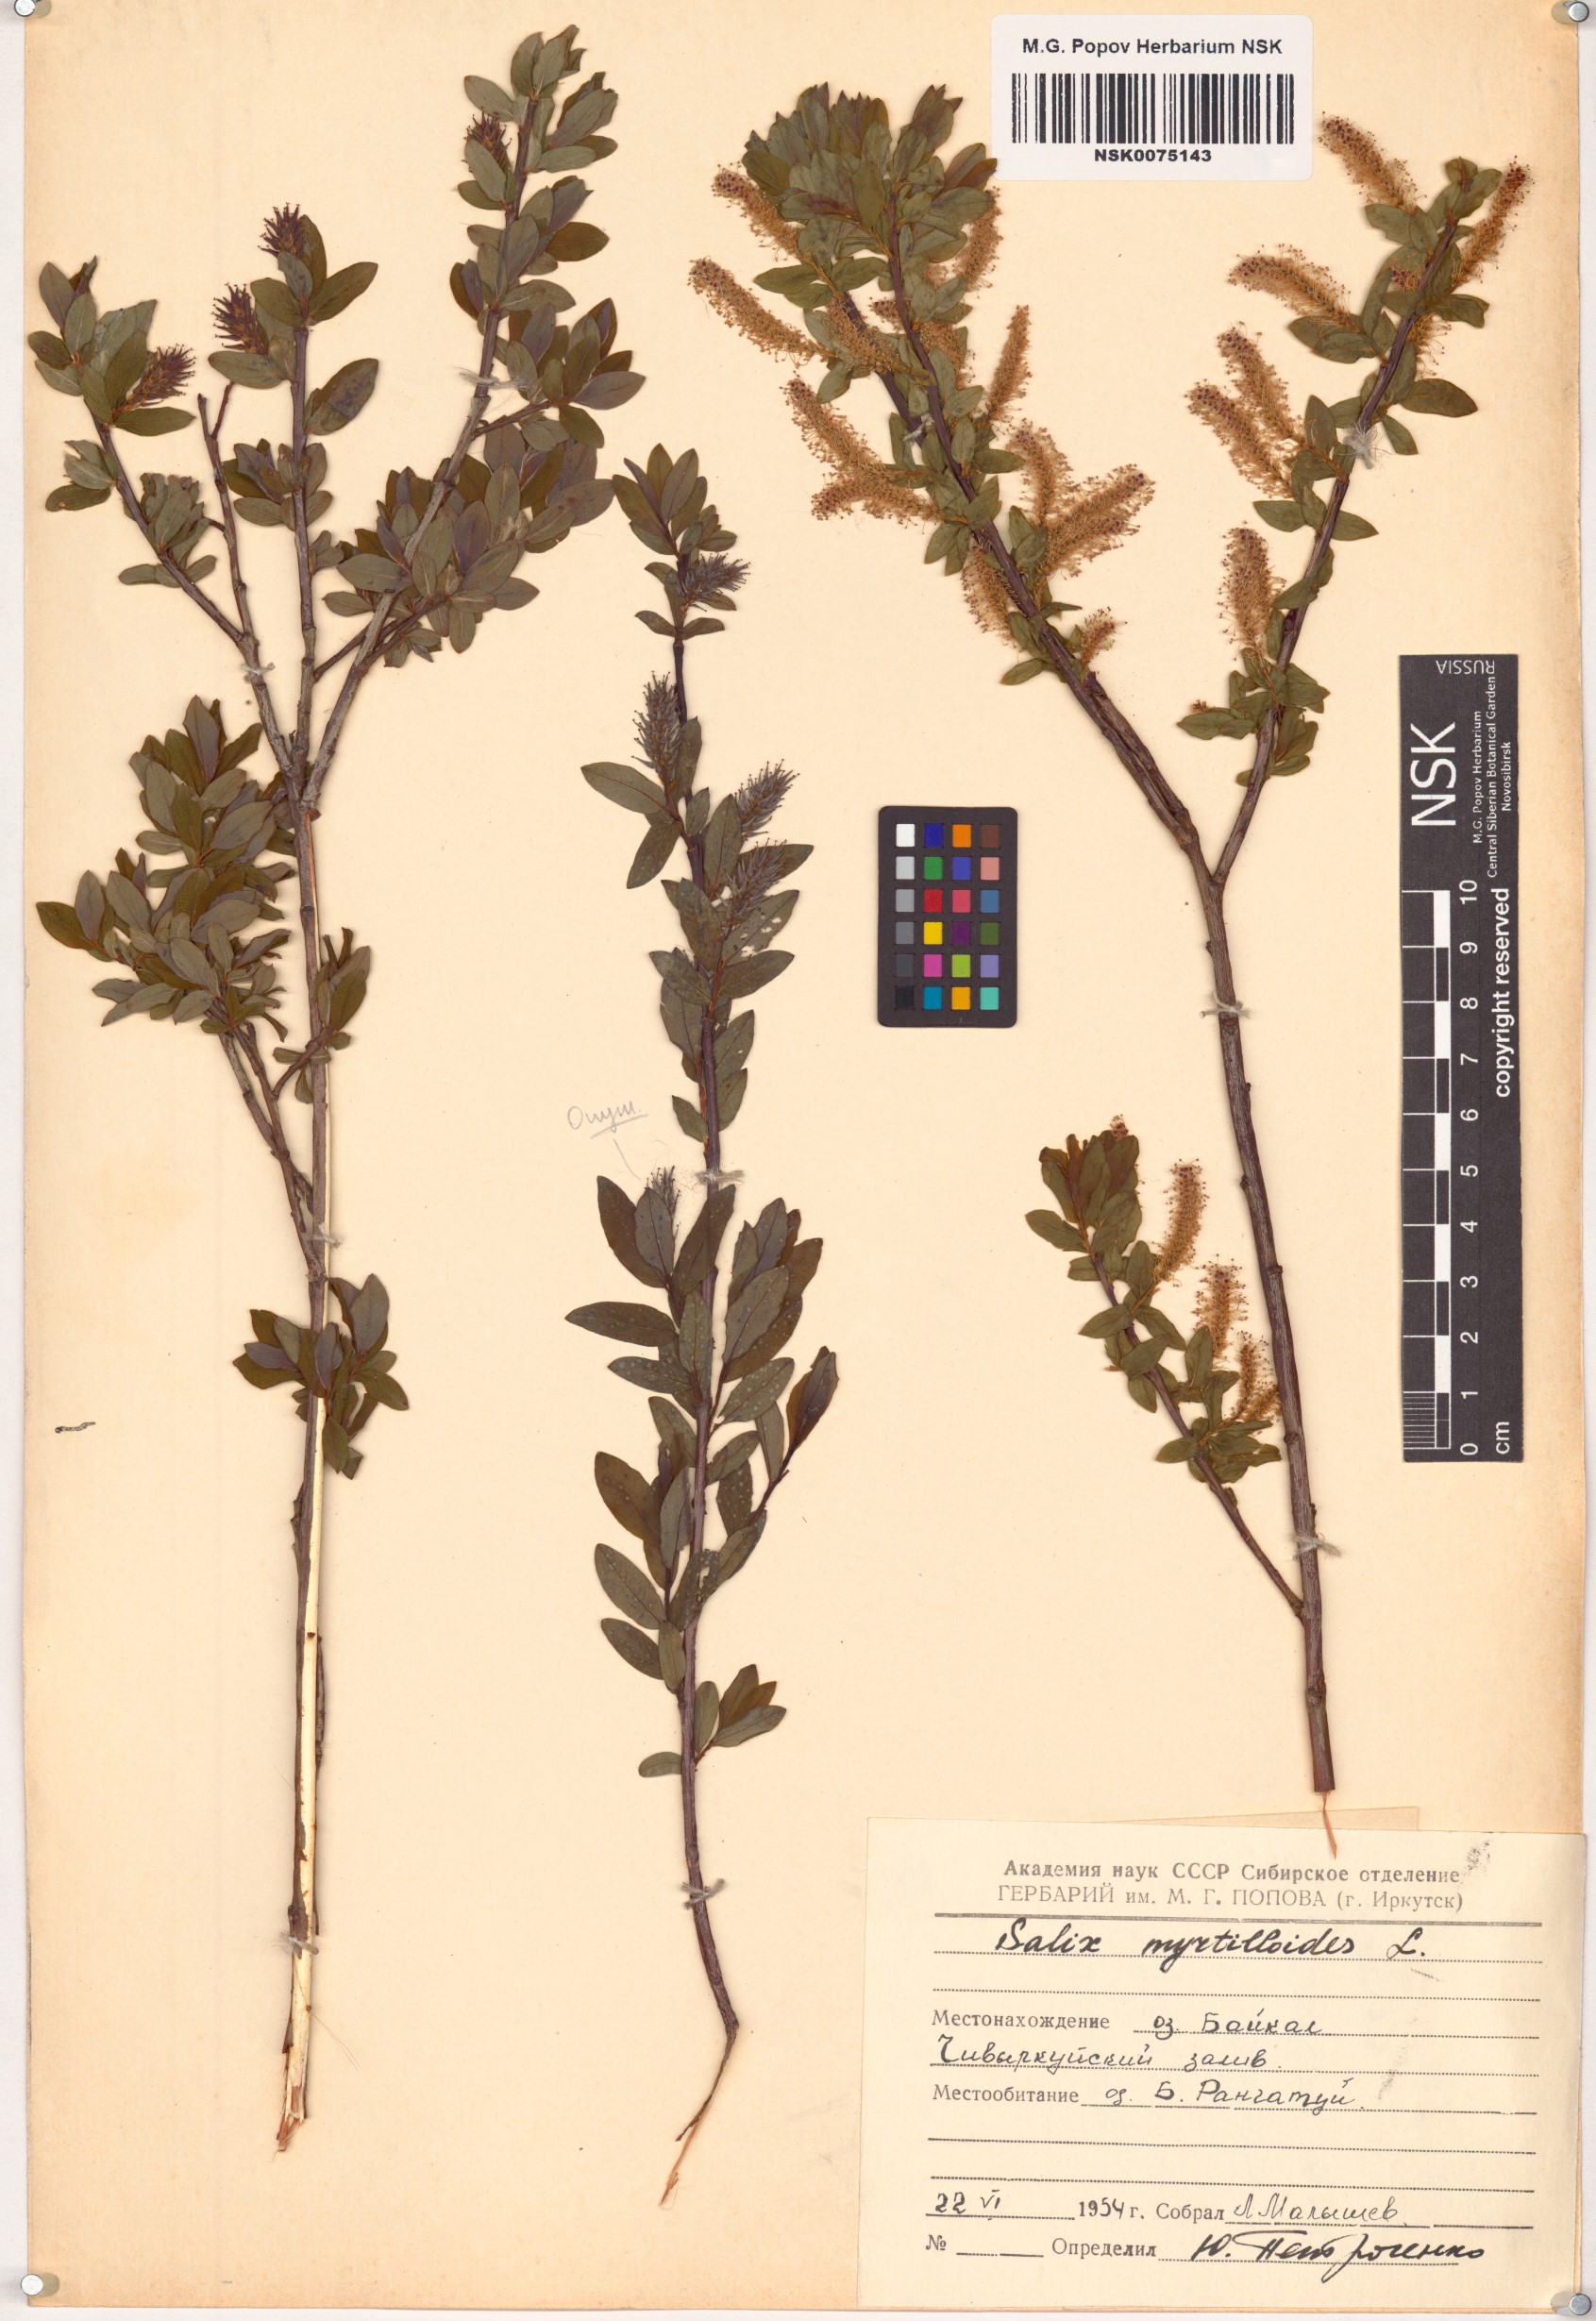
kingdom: Plantae
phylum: Tracheophyta
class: Magnoliopsida
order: Malpighiales
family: Salicaceae
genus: Salix
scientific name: Salix myrtilloides
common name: Myrtle-leaved willow
